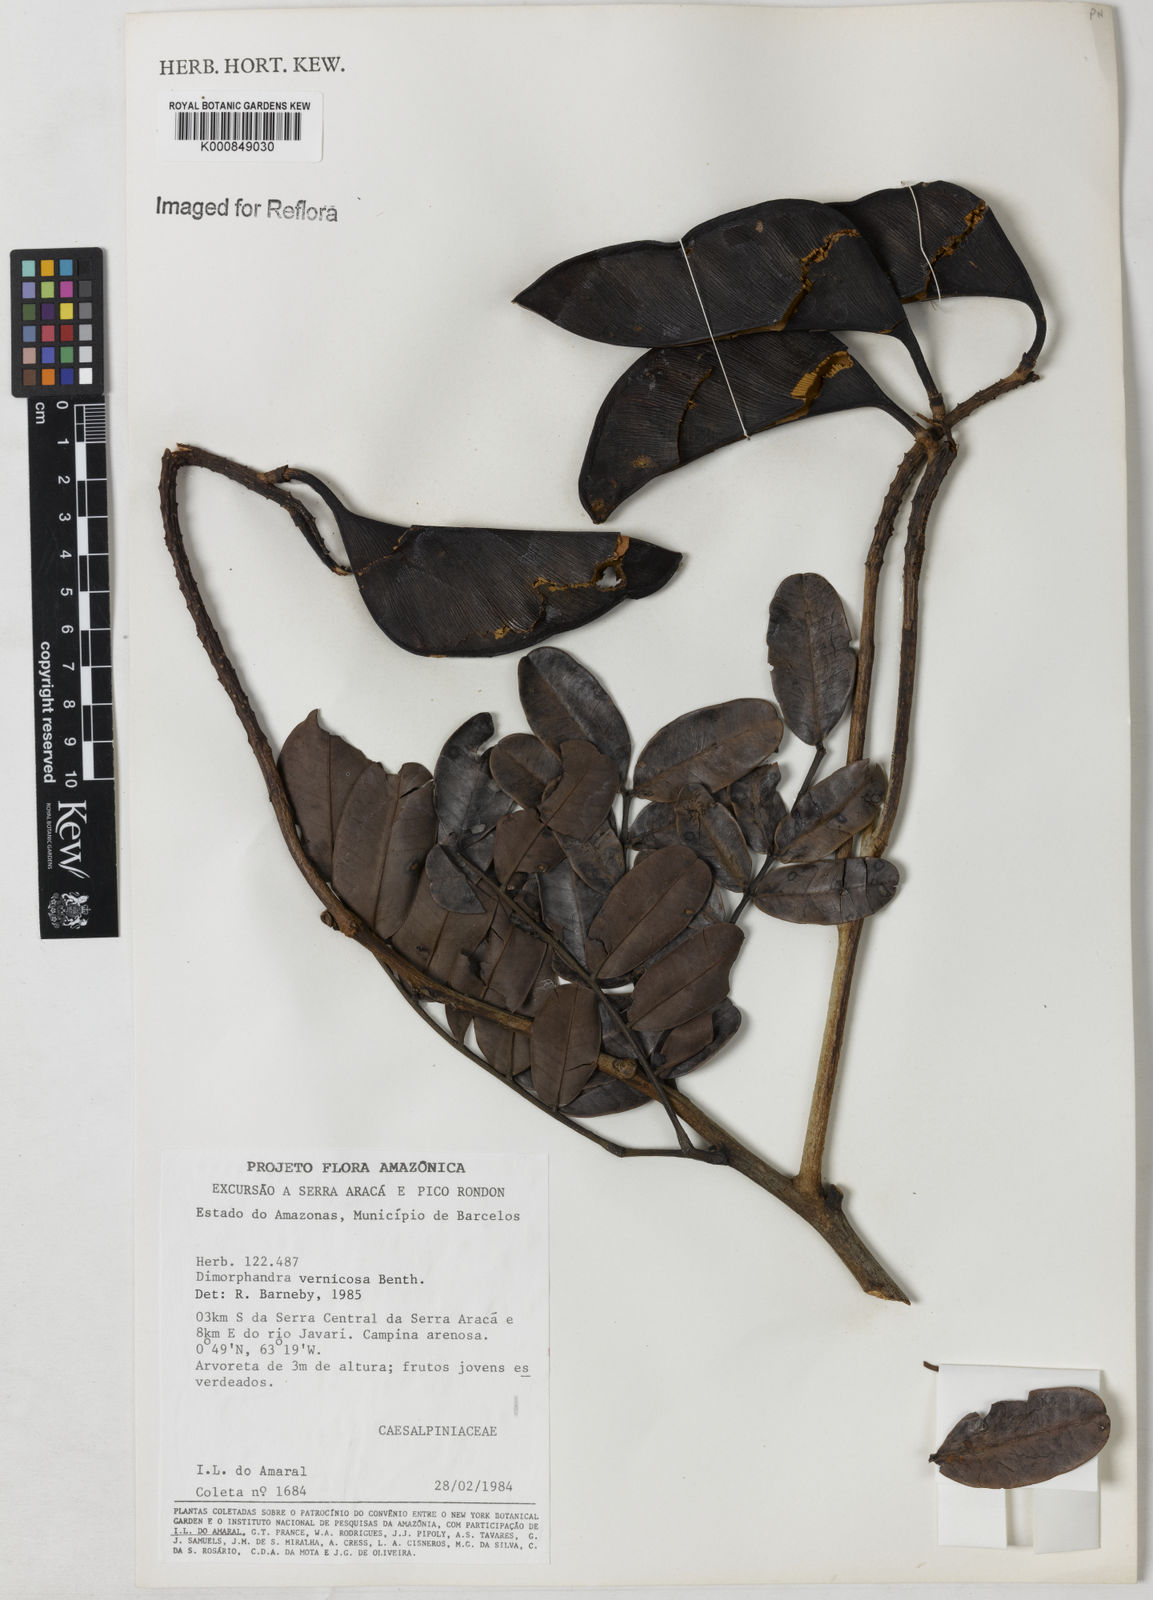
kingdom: Plantae
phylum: Tracheophyta
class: Magnoliopsida
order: Fabales
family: Fabaceae
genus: Dimorphandra
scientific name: Dimorphandra vernicosa
